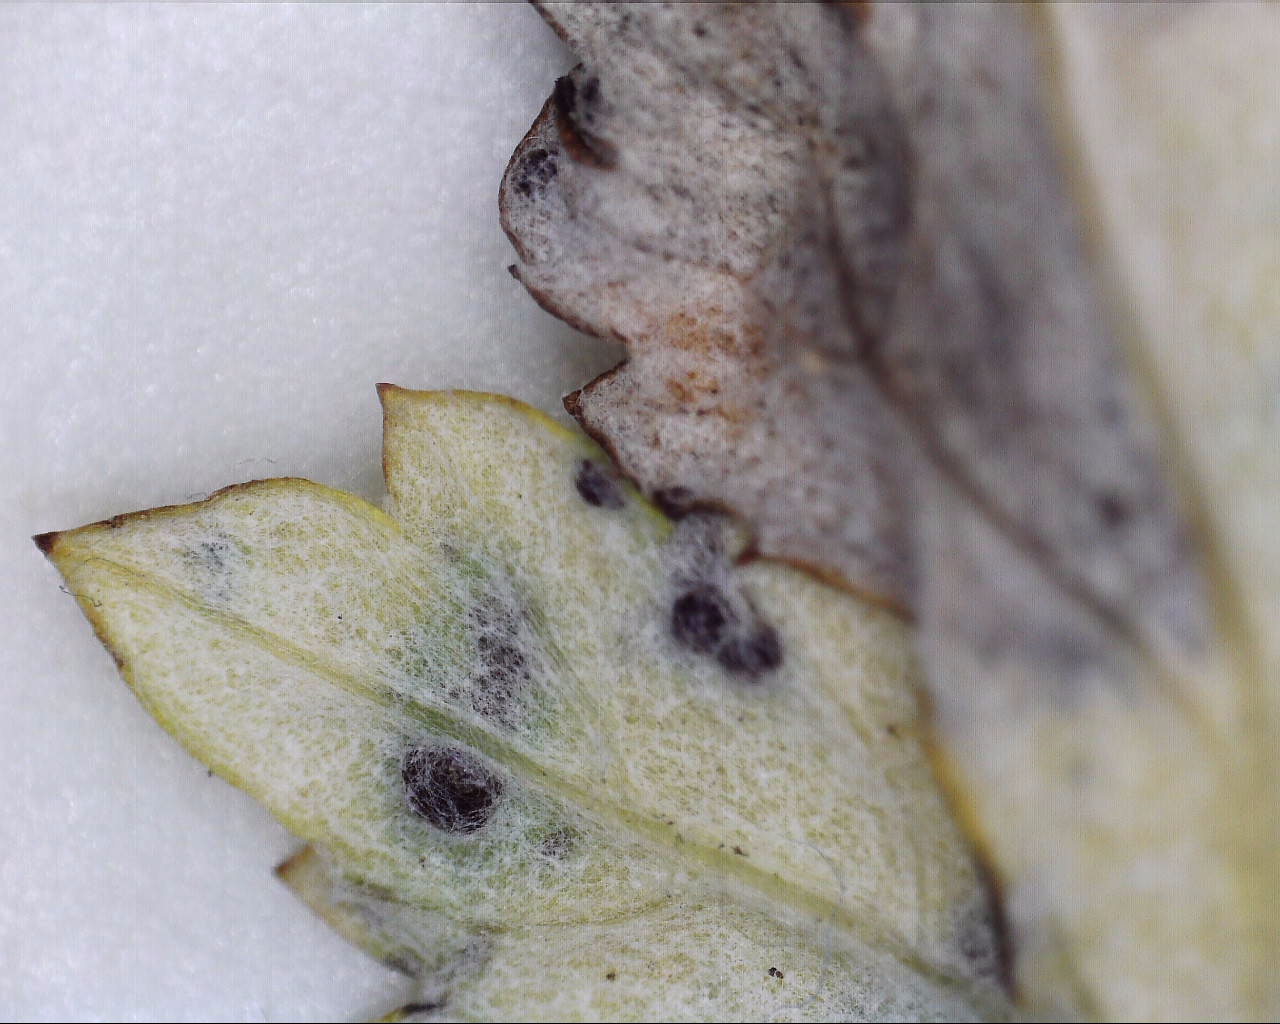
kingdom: Fungi
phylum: Basidiomycota
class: Pucciniomycetes
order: Pucciniales
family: Pucciniaceae
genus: Puccinia
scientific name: Puccinia tanaceti
